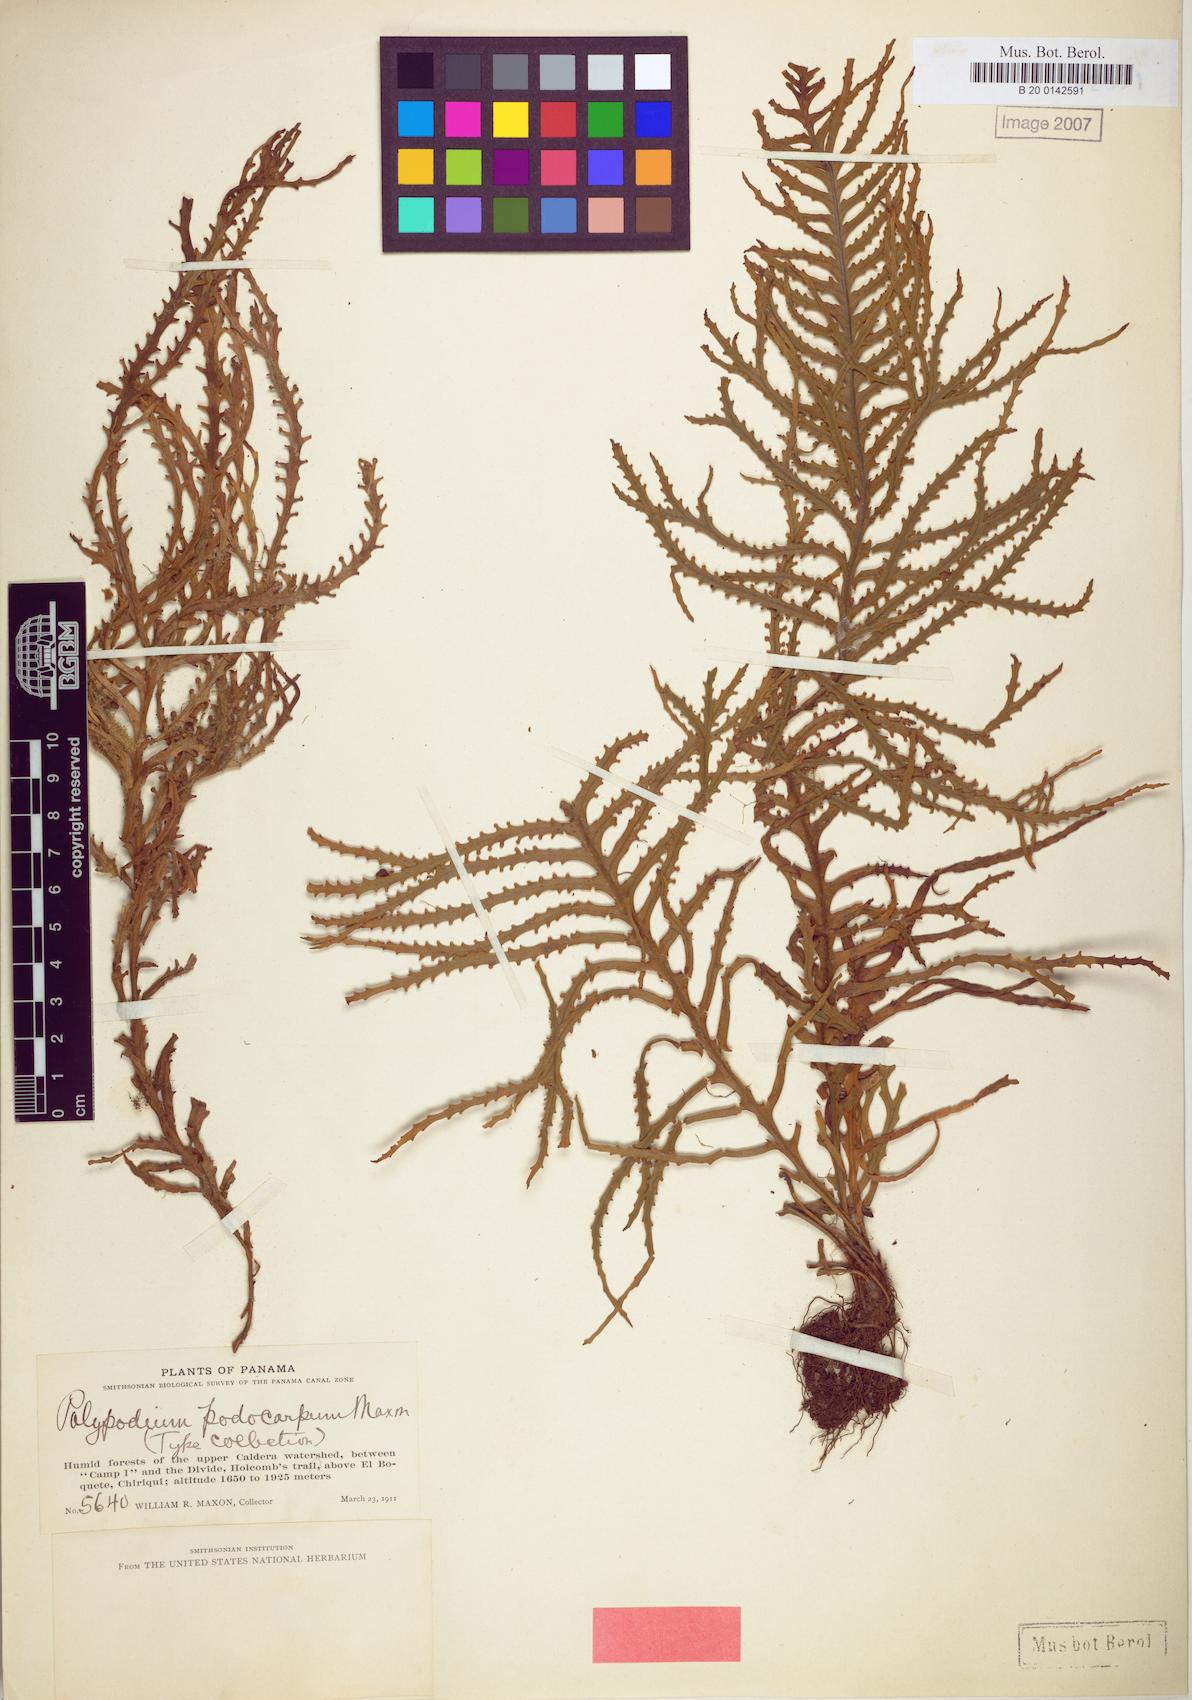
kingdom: Plantae
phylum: Tracheophyta
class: Polypodiopsida
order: Polypodiales
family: Polypodiaceae
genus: Ceradenia
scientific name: Ceradenia podocarpa
